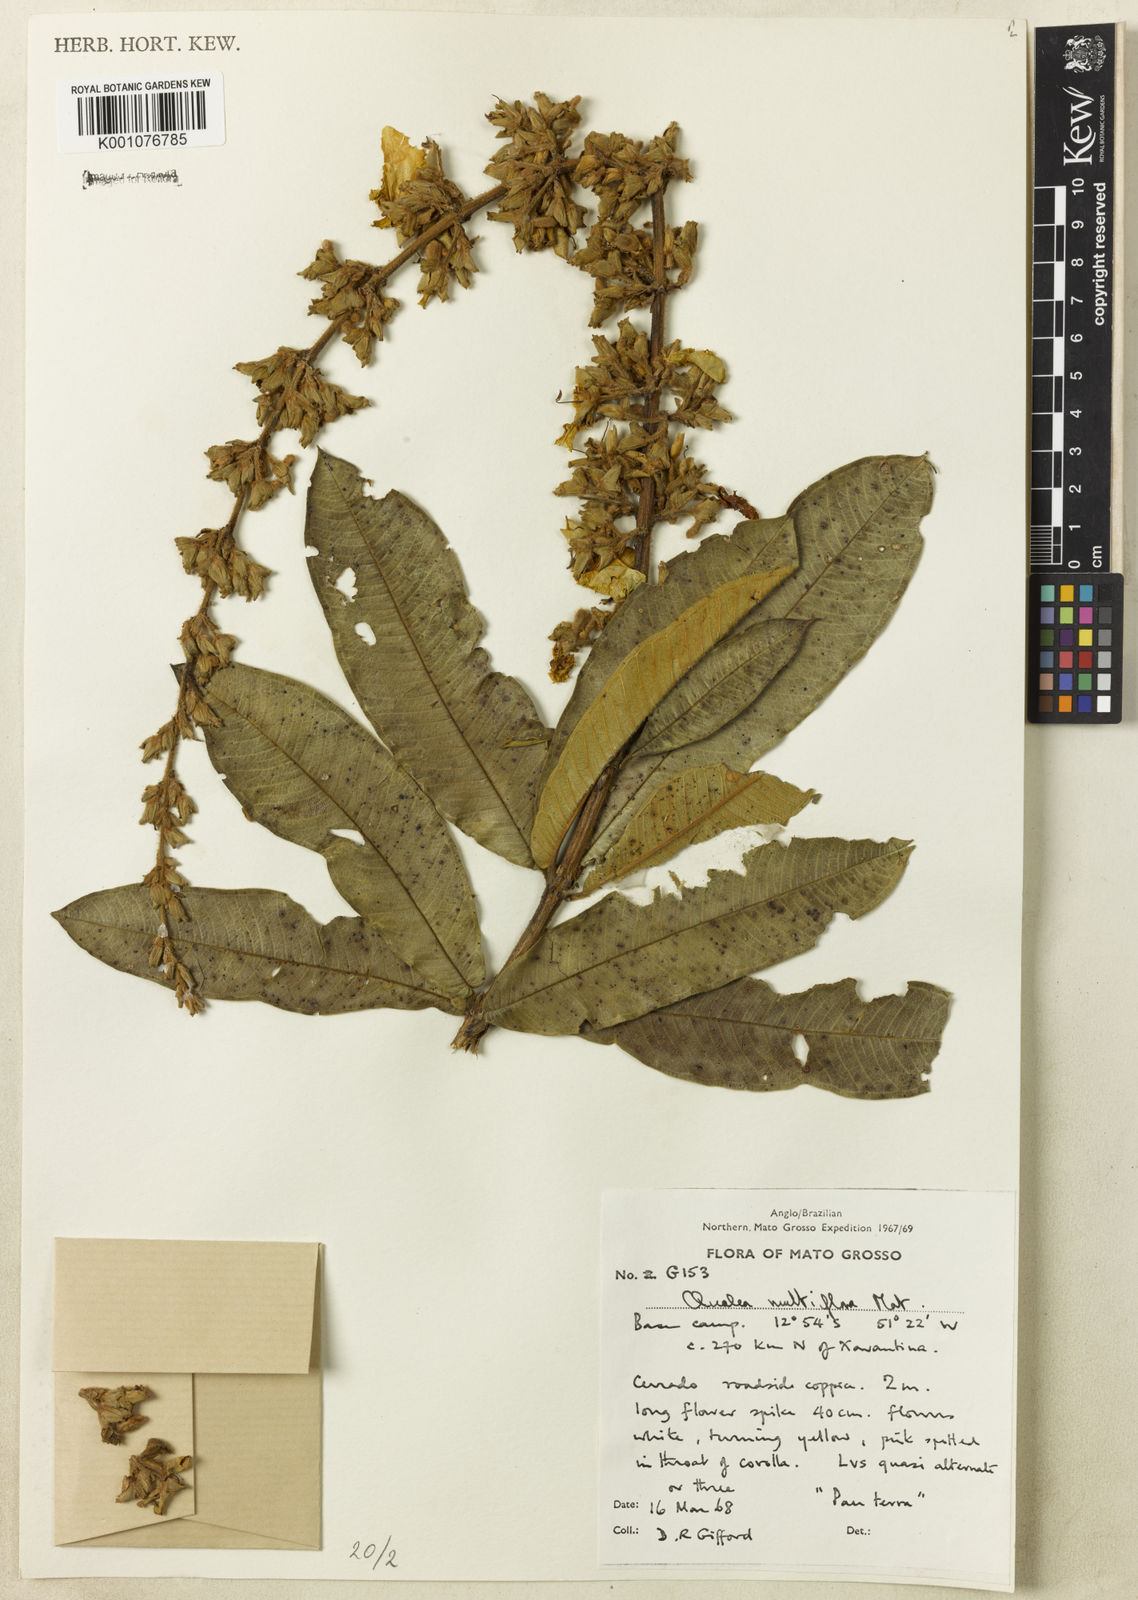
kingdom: Plantae
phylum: Tracheophyta
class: Magnoliopsida
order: Myrtales
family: Vochysiaceae
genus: Qualea
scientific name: Qualea multiflora
